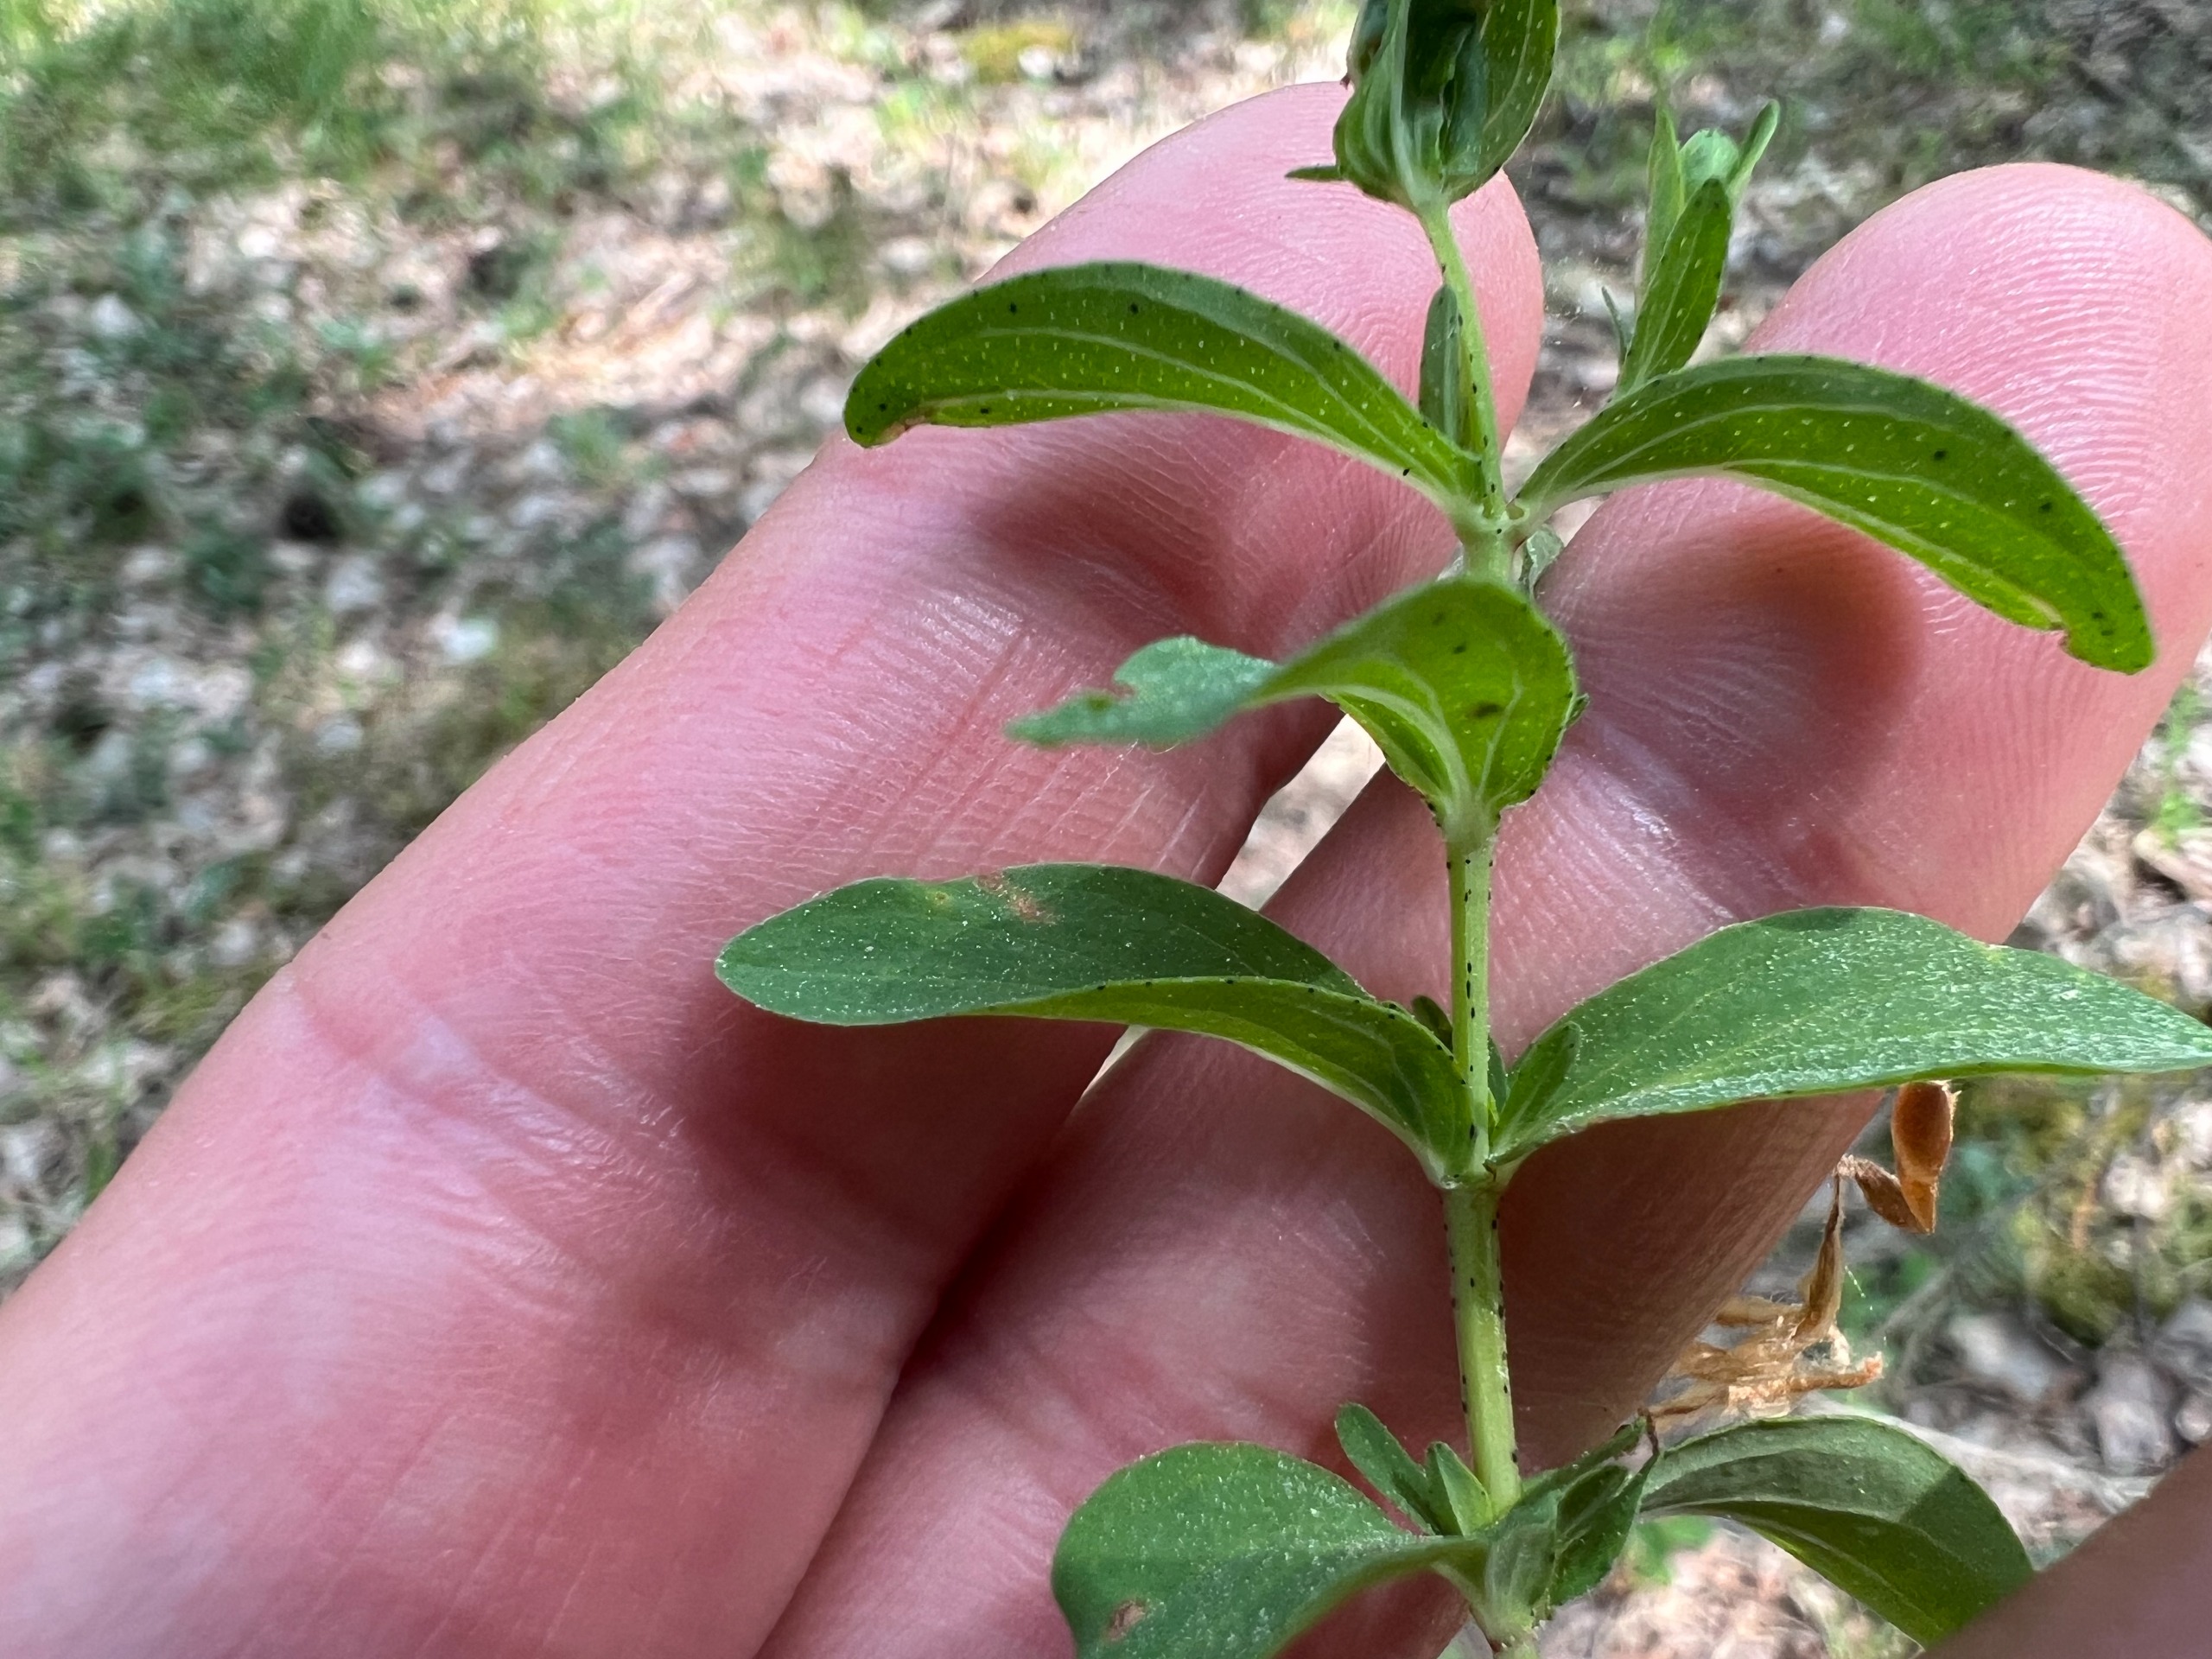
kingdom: Plantae
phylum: Tracheophyta
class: Magnoliopsida
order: Malpighiales
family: Hypericaceae
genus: Hypericum
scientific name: Hypericum perforatum
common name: Prikbladet perikon
